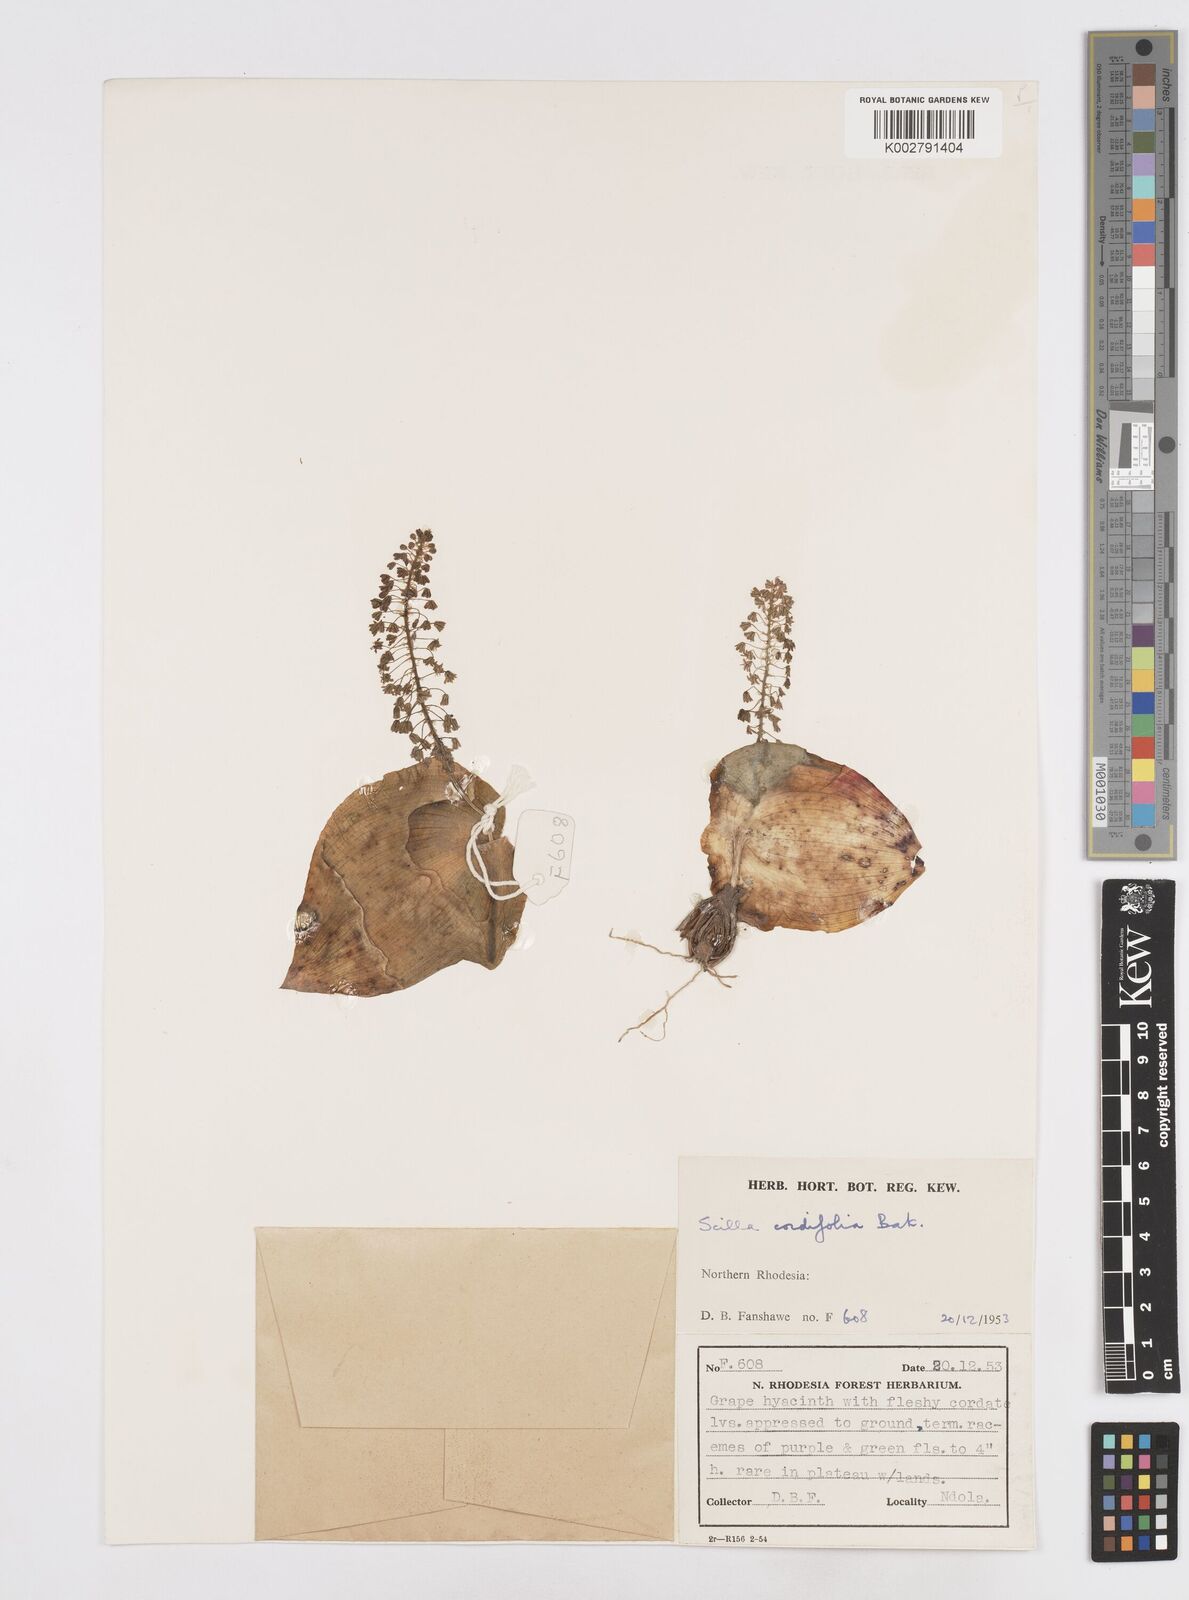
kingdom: Plantae
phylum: Tracheophyta
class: Liliopsida
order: Asparagales
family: Asparagaceae
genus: Ledebouria
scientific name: Ledebouria cordifolia
